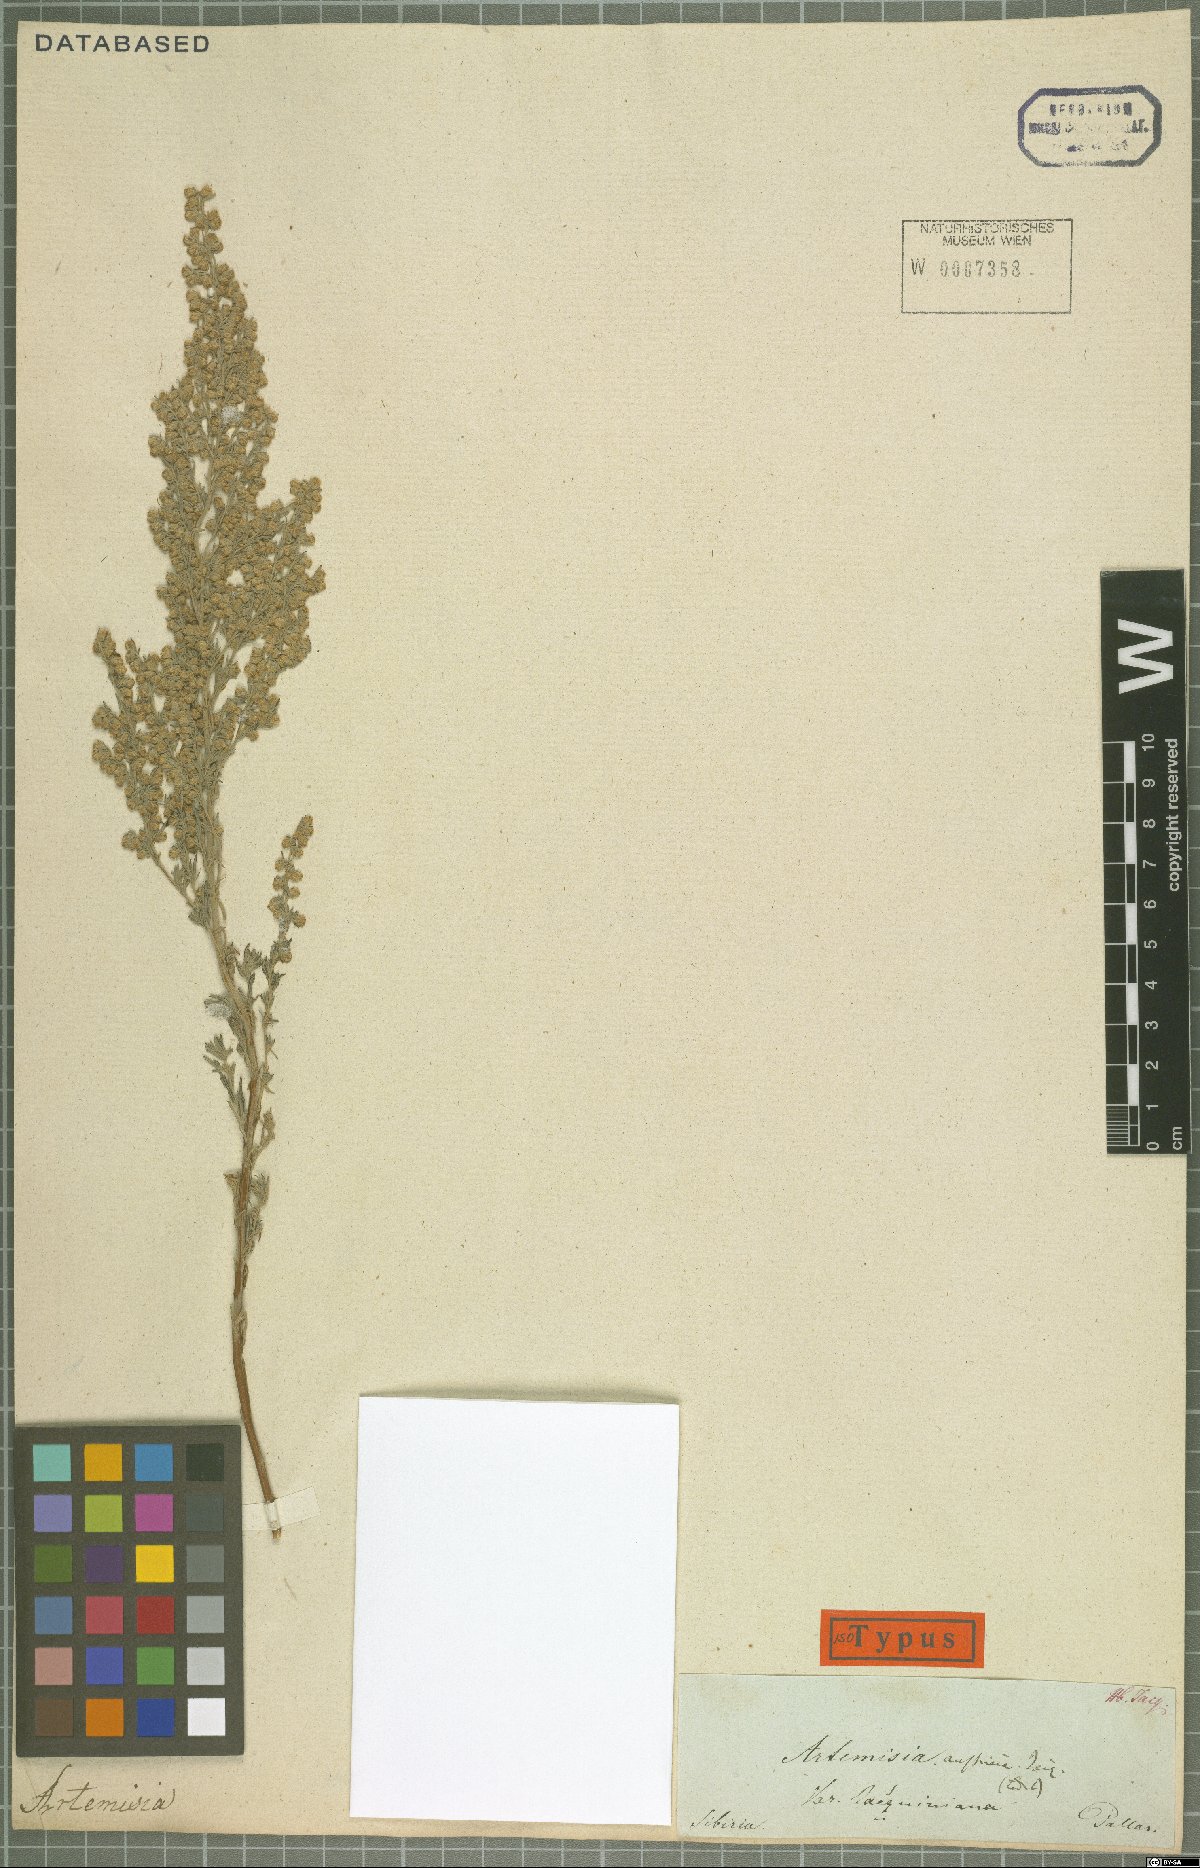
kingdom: Plantae
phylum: Tracheophyta
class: Magnoliopsida
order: Asterales
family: Asteraceae
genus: Artemisia
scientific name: Artemisia austriaca
